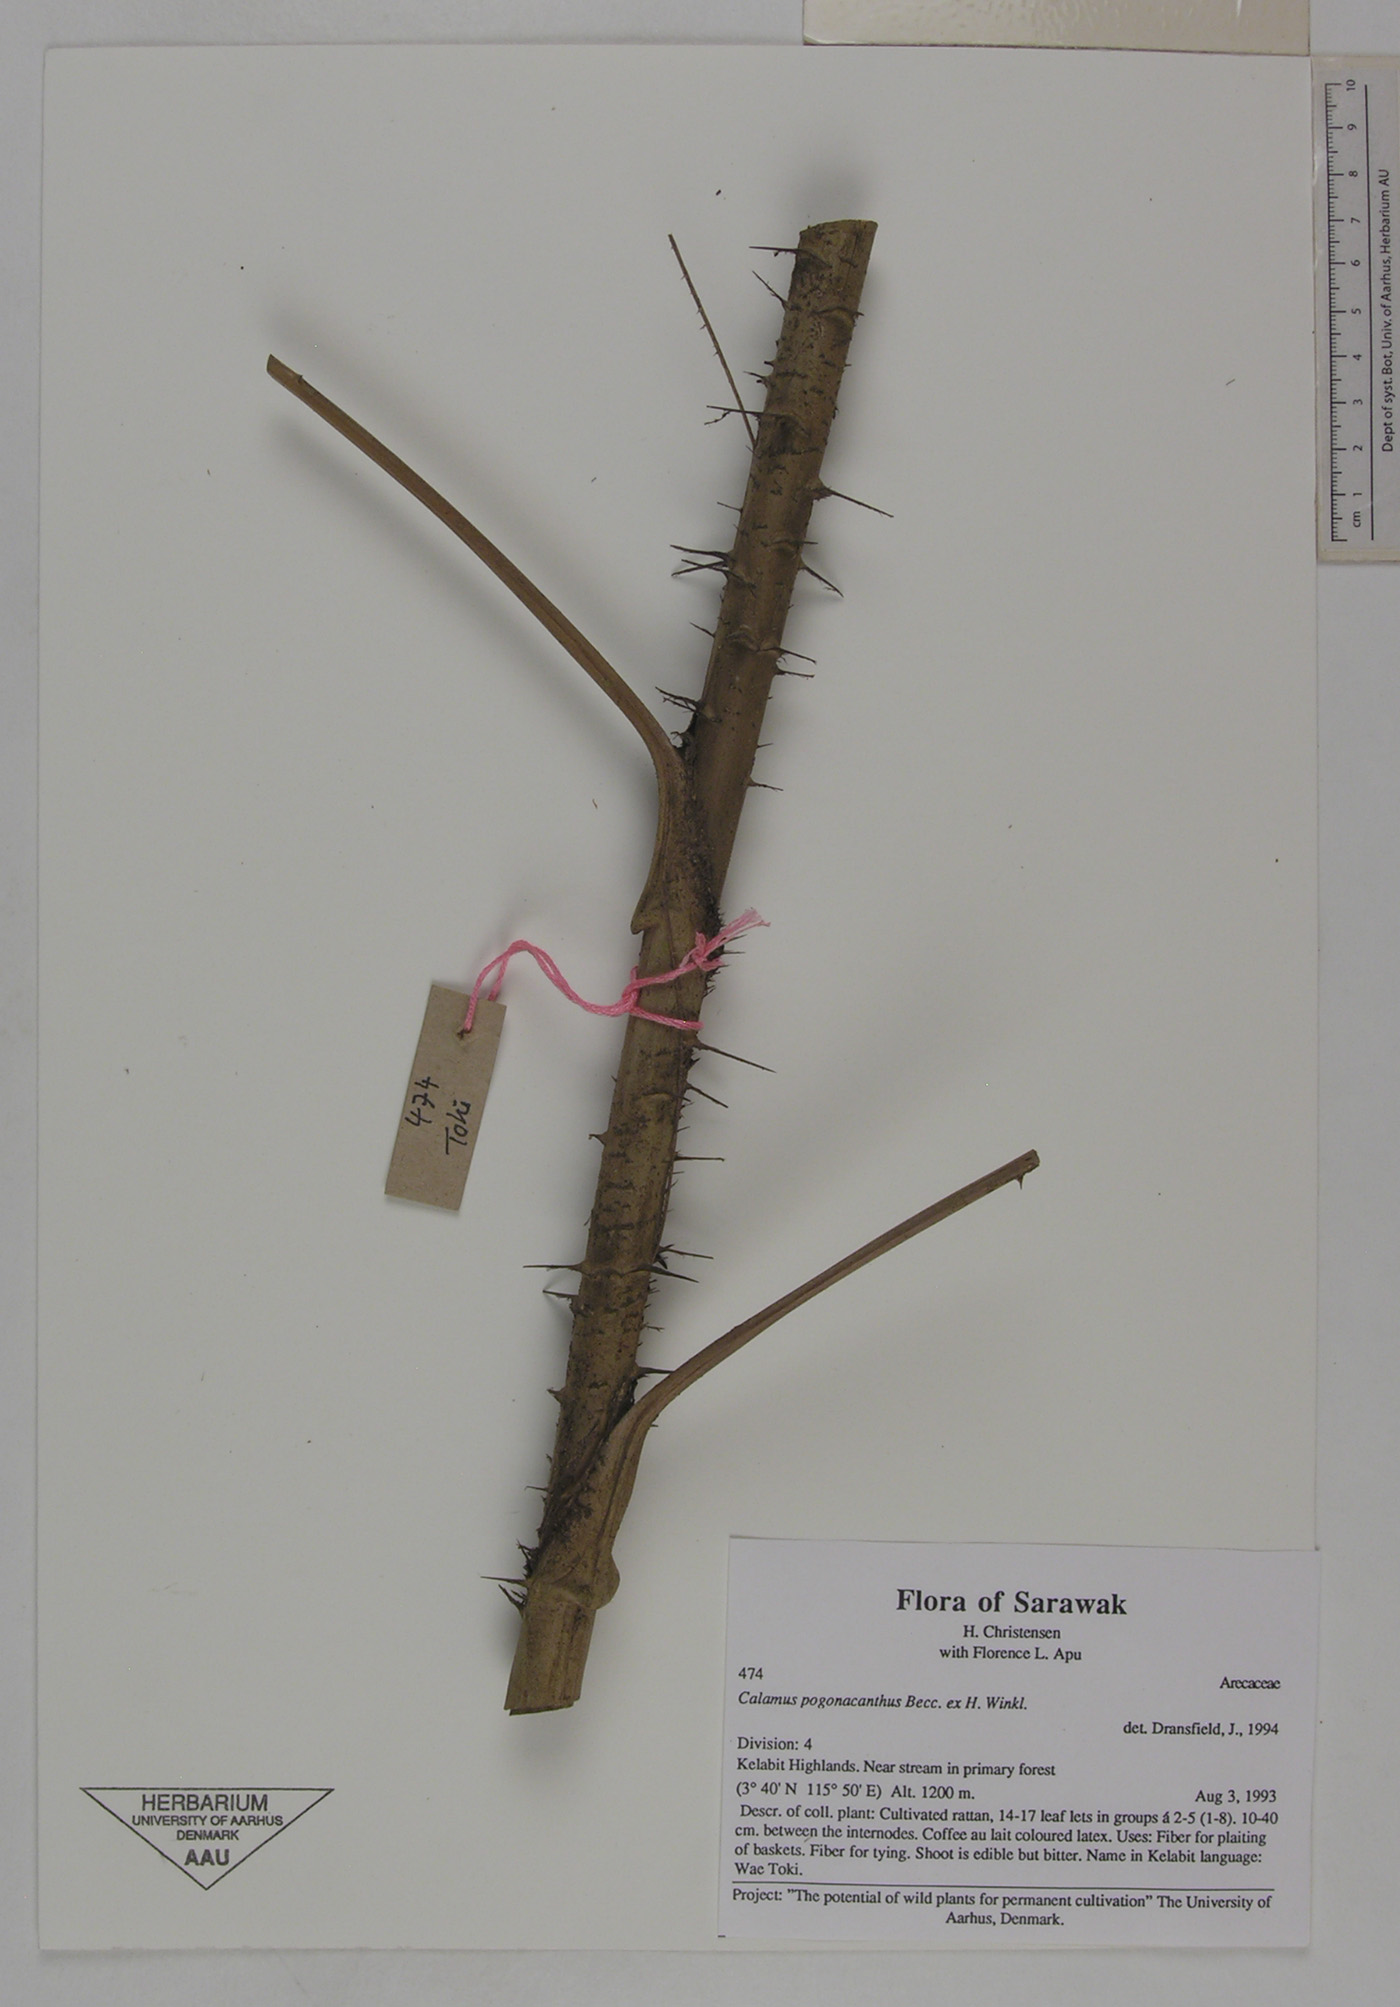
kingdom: Plantae
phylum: Tracheophyta
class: Liliopsida
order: Arecales
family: Arecaceae
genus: Calamus
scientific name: Calamus pogonacanthus
